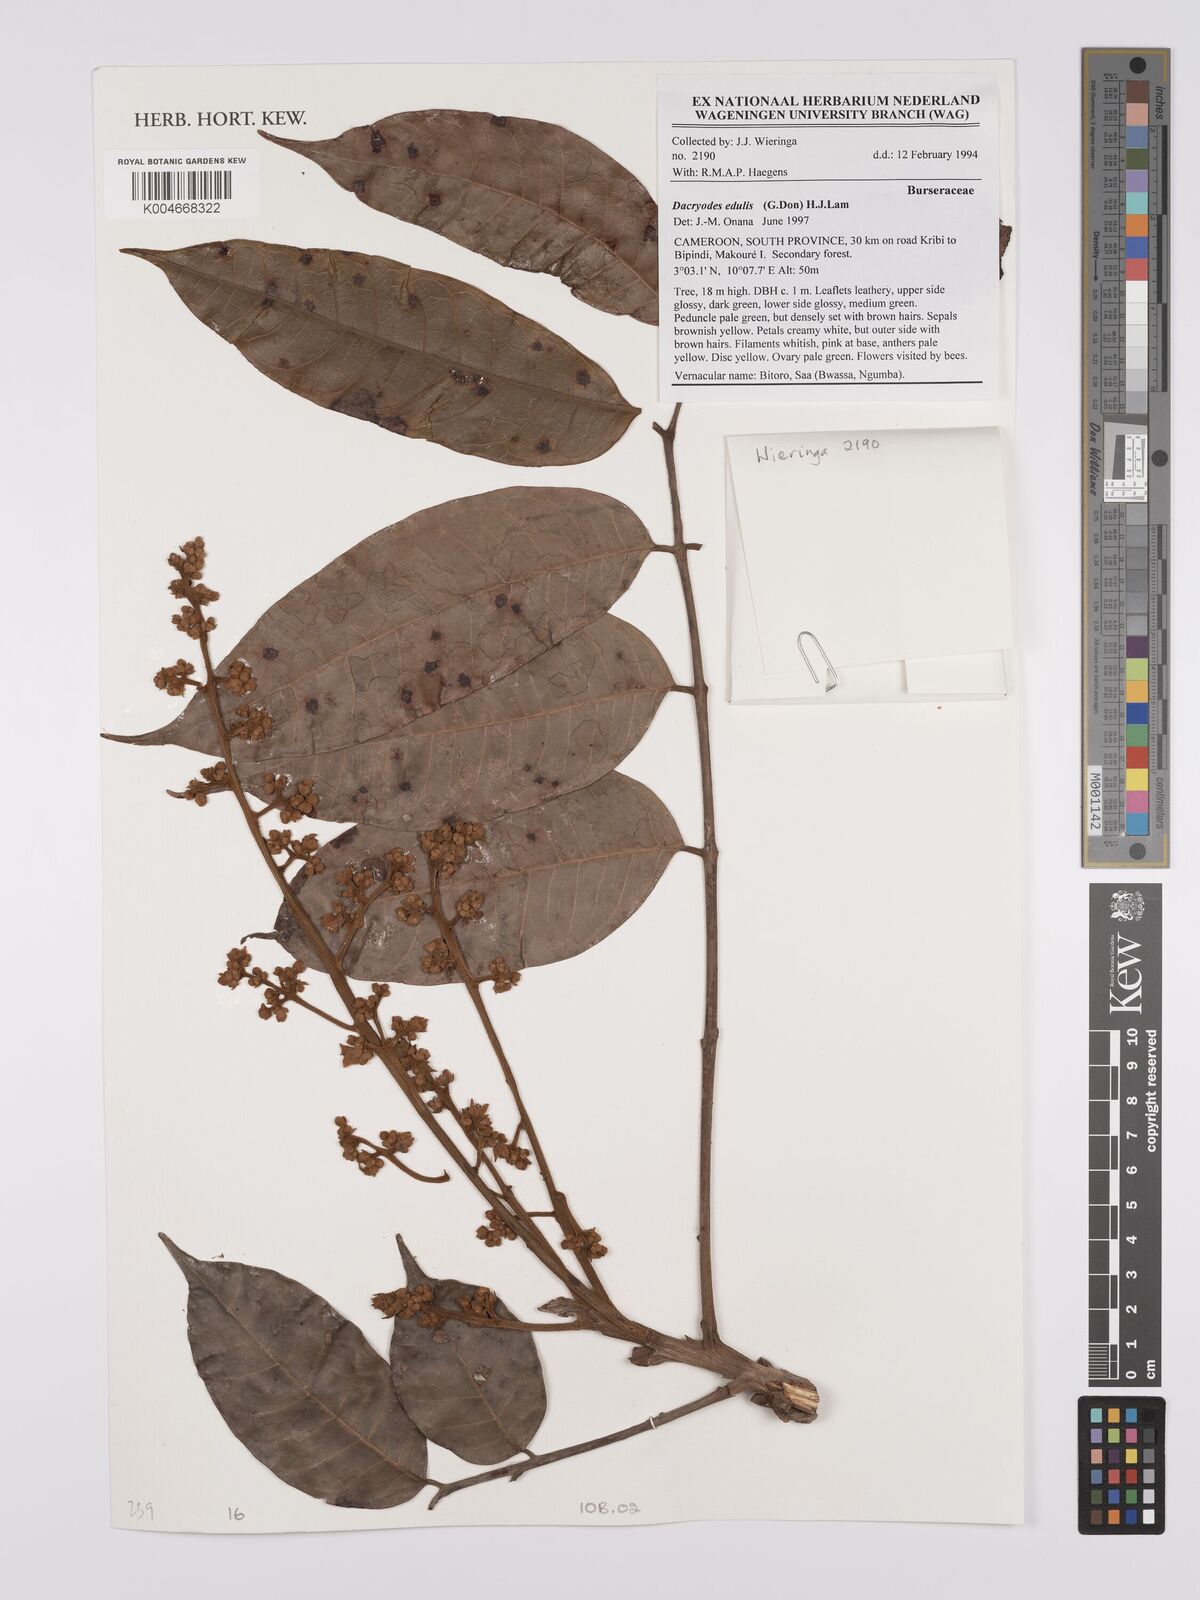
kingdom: Plantae
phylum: Tracheophyta
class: Magnoliopsida
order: Sapindales
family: Burseraceae
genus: Pachylobus
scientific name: Pachylobus edulis
